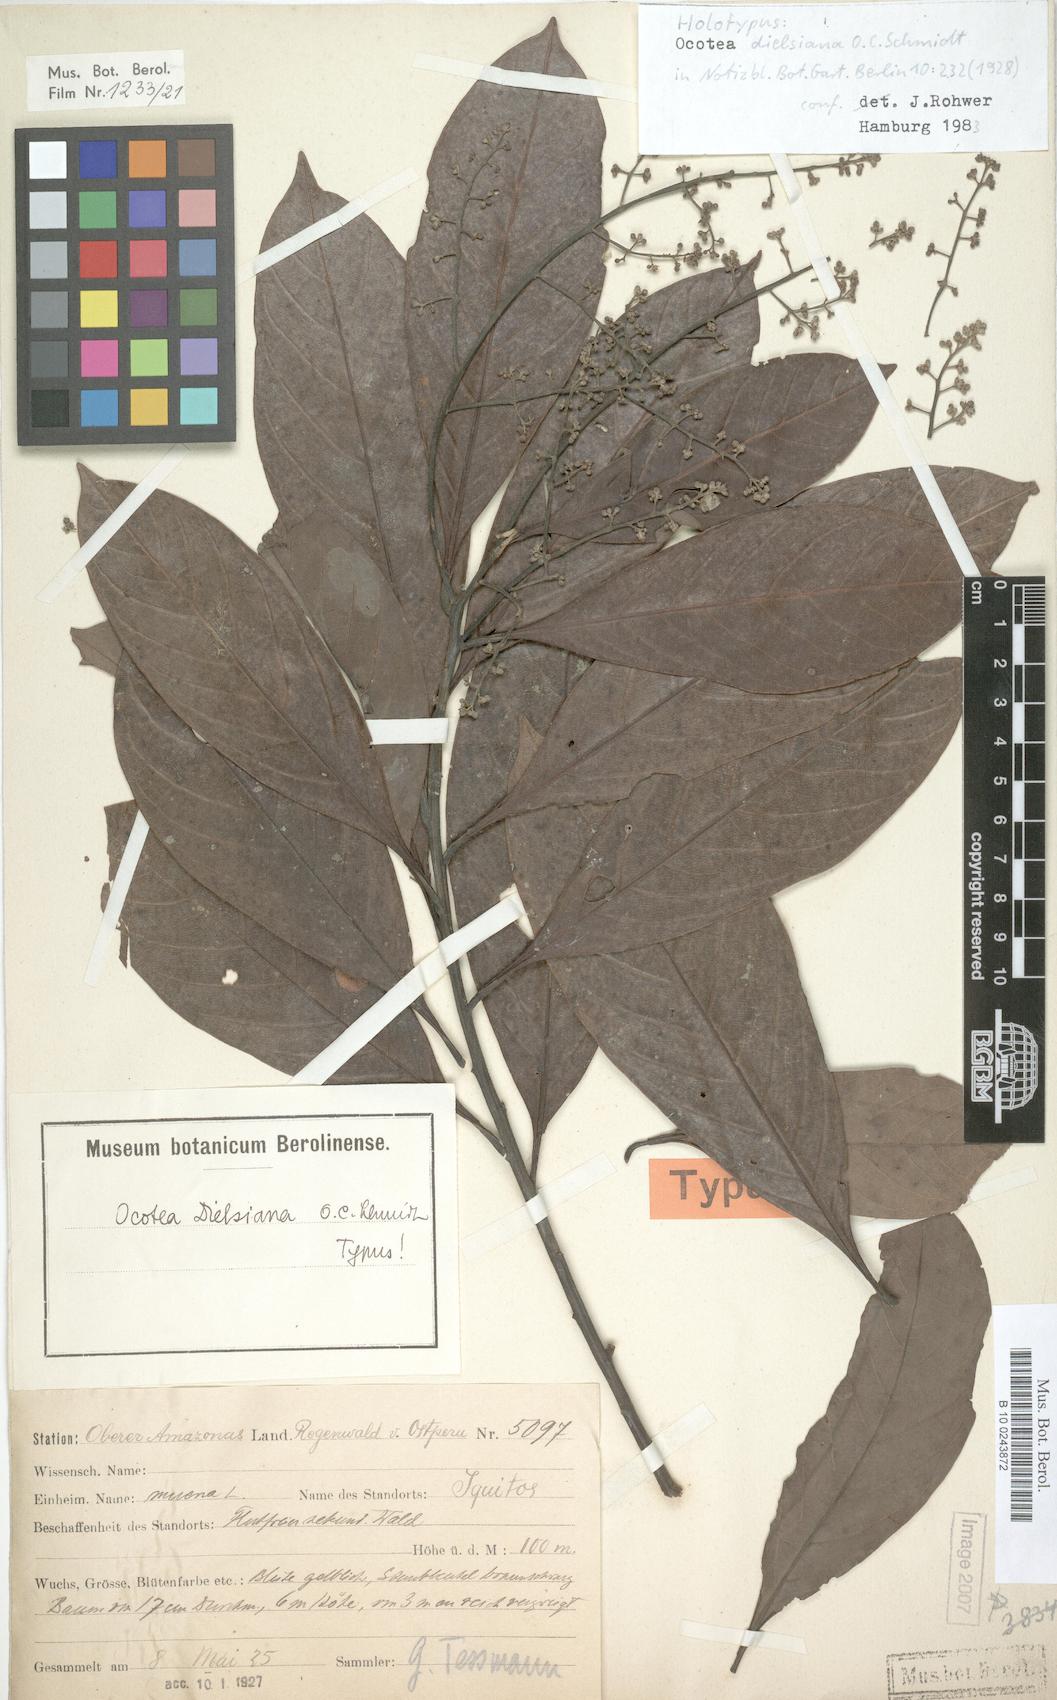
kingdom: Plantae
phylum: Tracheophyta
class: Magnoliopsida
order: Laurales
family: Lauraceae
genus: Ocotea
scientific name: Ocotea dielsiana
